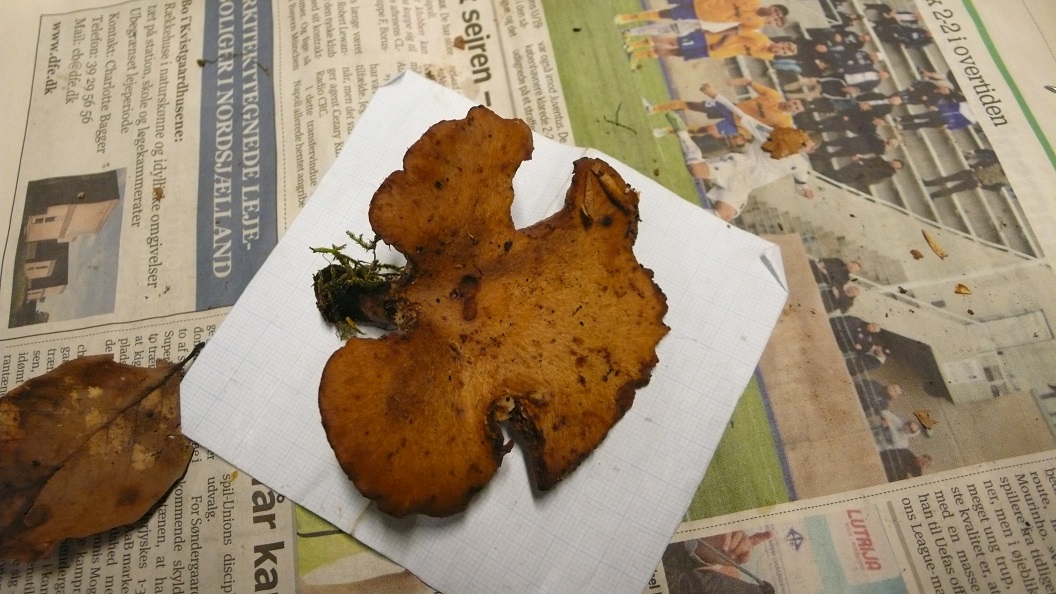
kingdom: Fungi
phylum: Basidiomycota
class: Agaricomycetes
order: Polyporales
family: Polyporaceae
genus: Cerioporus
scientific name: Cerioporus varius
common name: foranderlig stilkporesvamp
